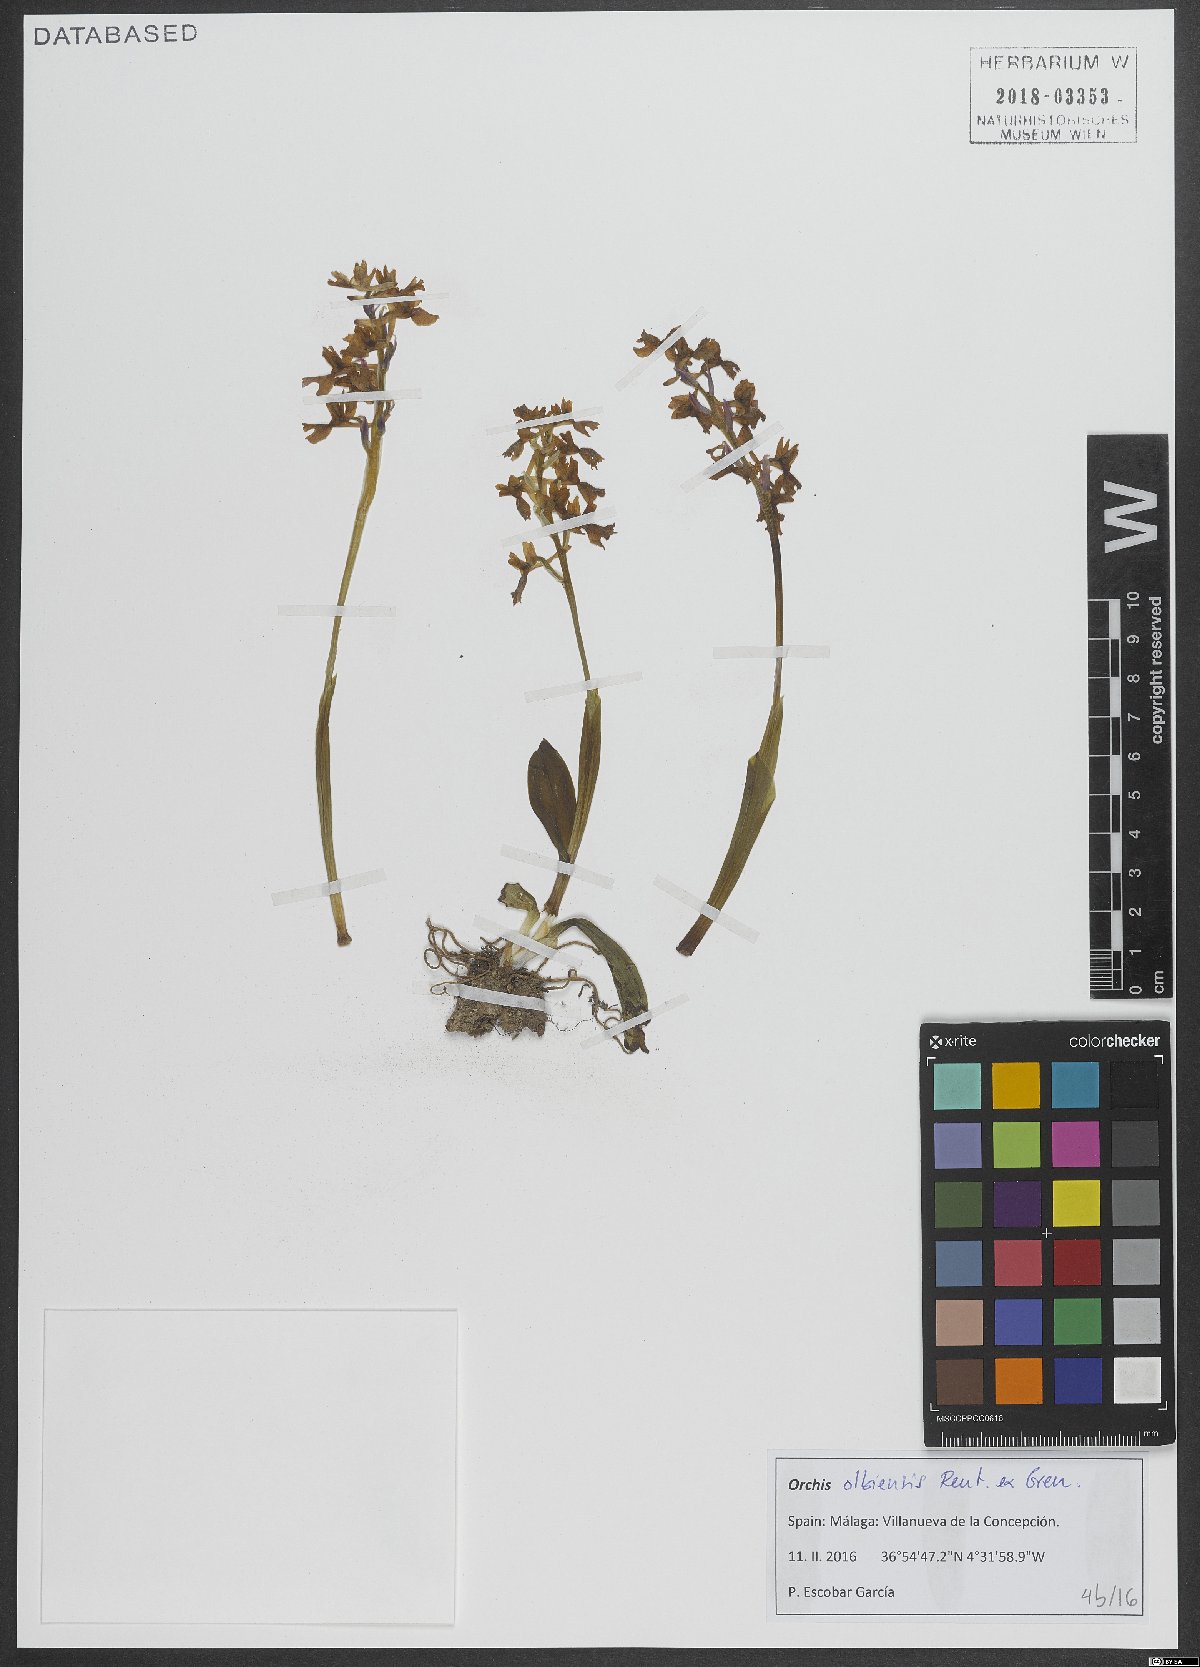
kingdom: Plantae
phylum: Tracheophyta
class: Liliopsida
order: Asparagales
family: Orchidaceae
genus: Orchis
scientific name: Orchis olbiensis
